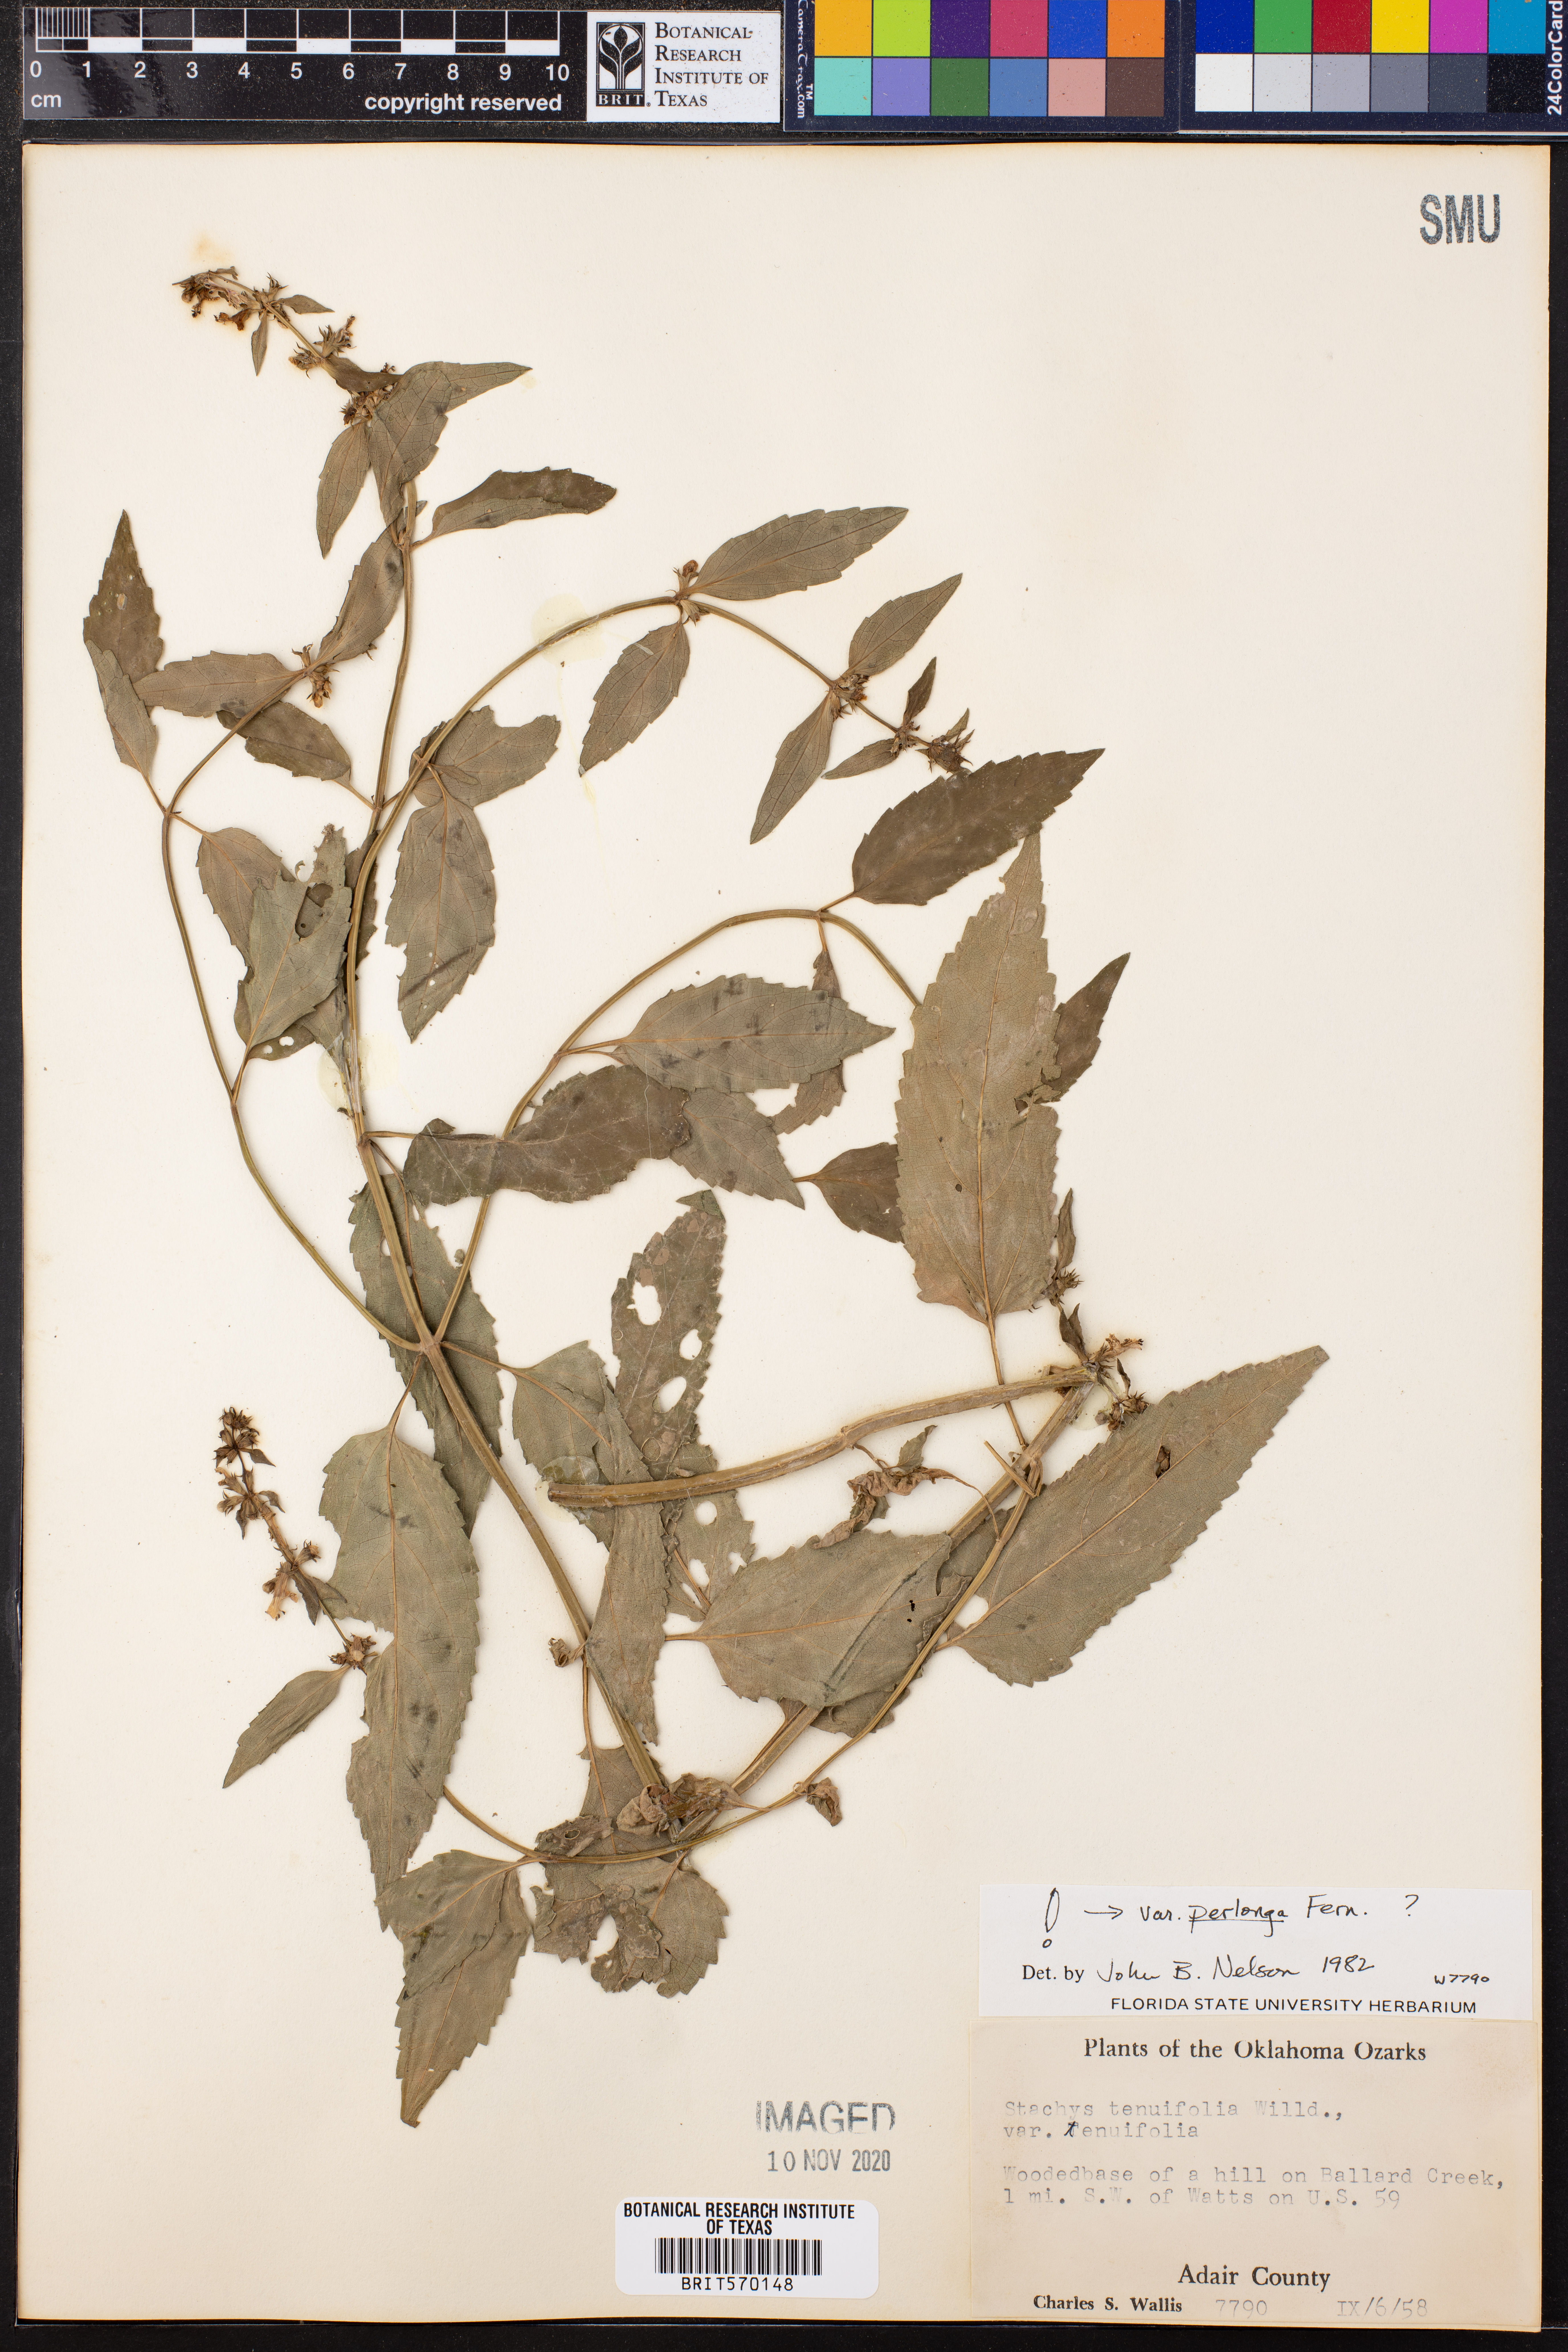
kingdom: Plantae
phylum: Tracheophyta
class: Magnoliopsida
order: Lamiales
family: Lamiaceae
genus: Stachys
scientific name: Stachys tenuifolia
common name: Smooth hedge-nettle
